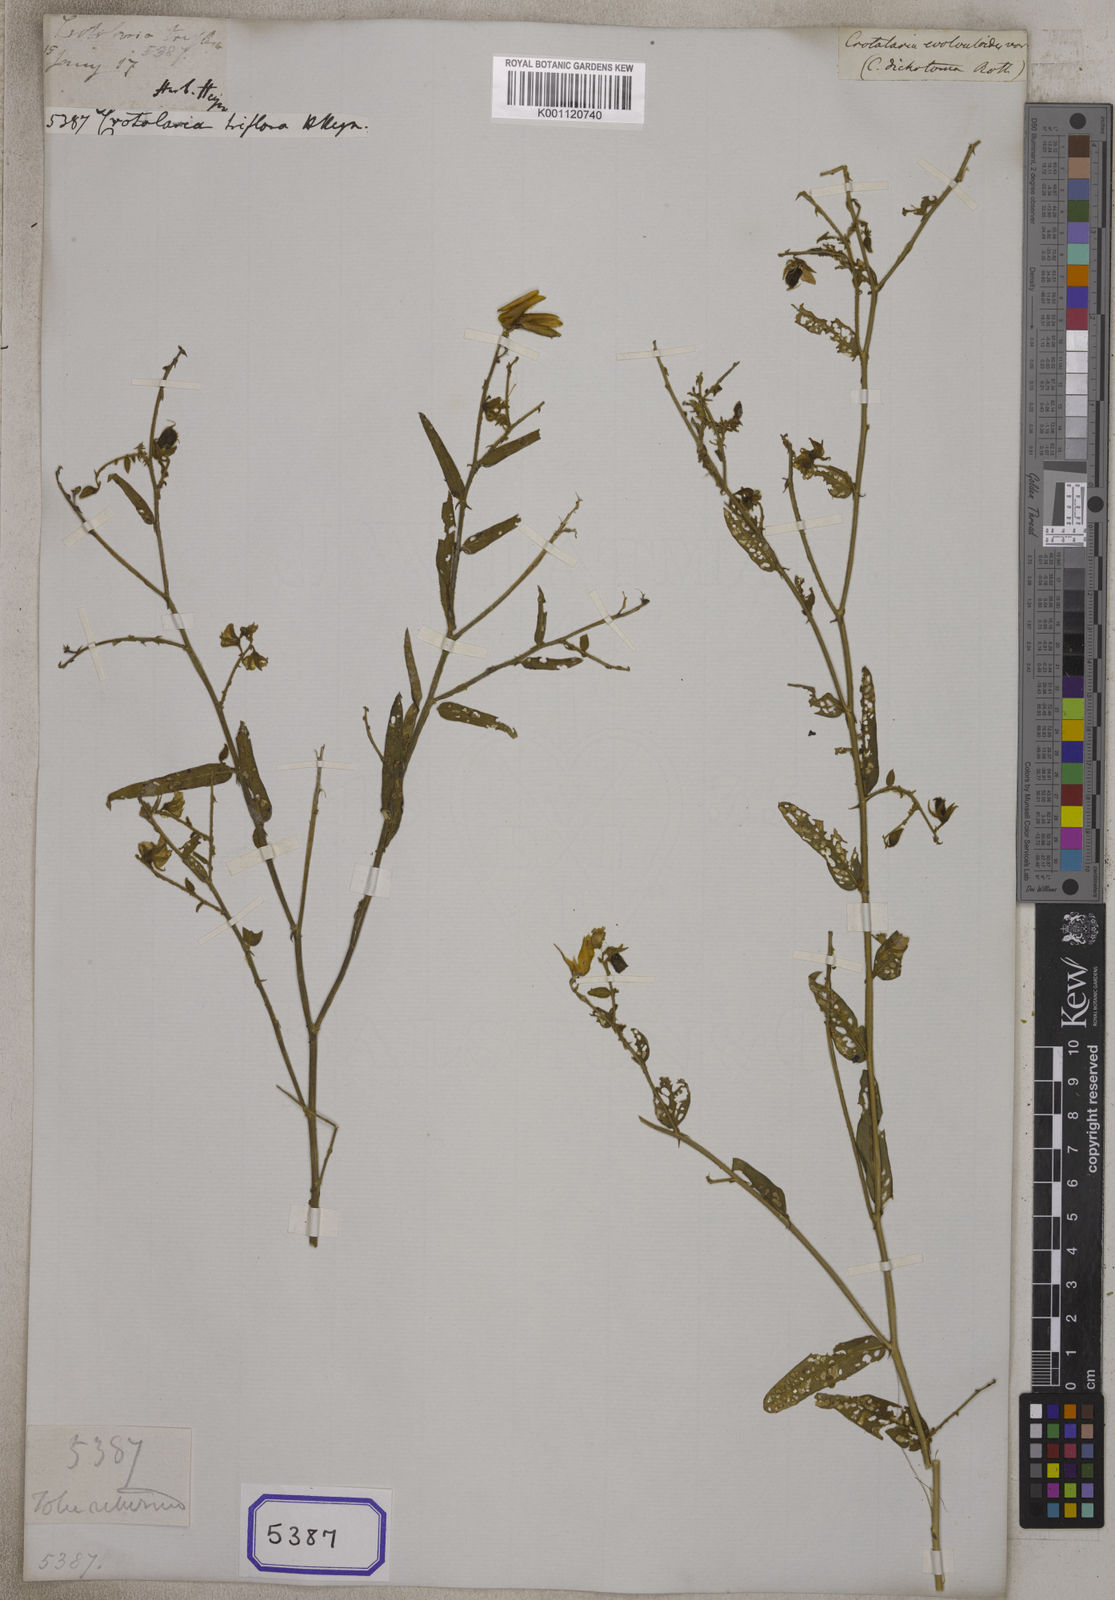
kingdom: Plantae
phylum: Tracheophyta
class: Magnoliopsida
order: Fabales
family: Fabaceae
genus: Crotalaria
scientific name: Crotalaria
